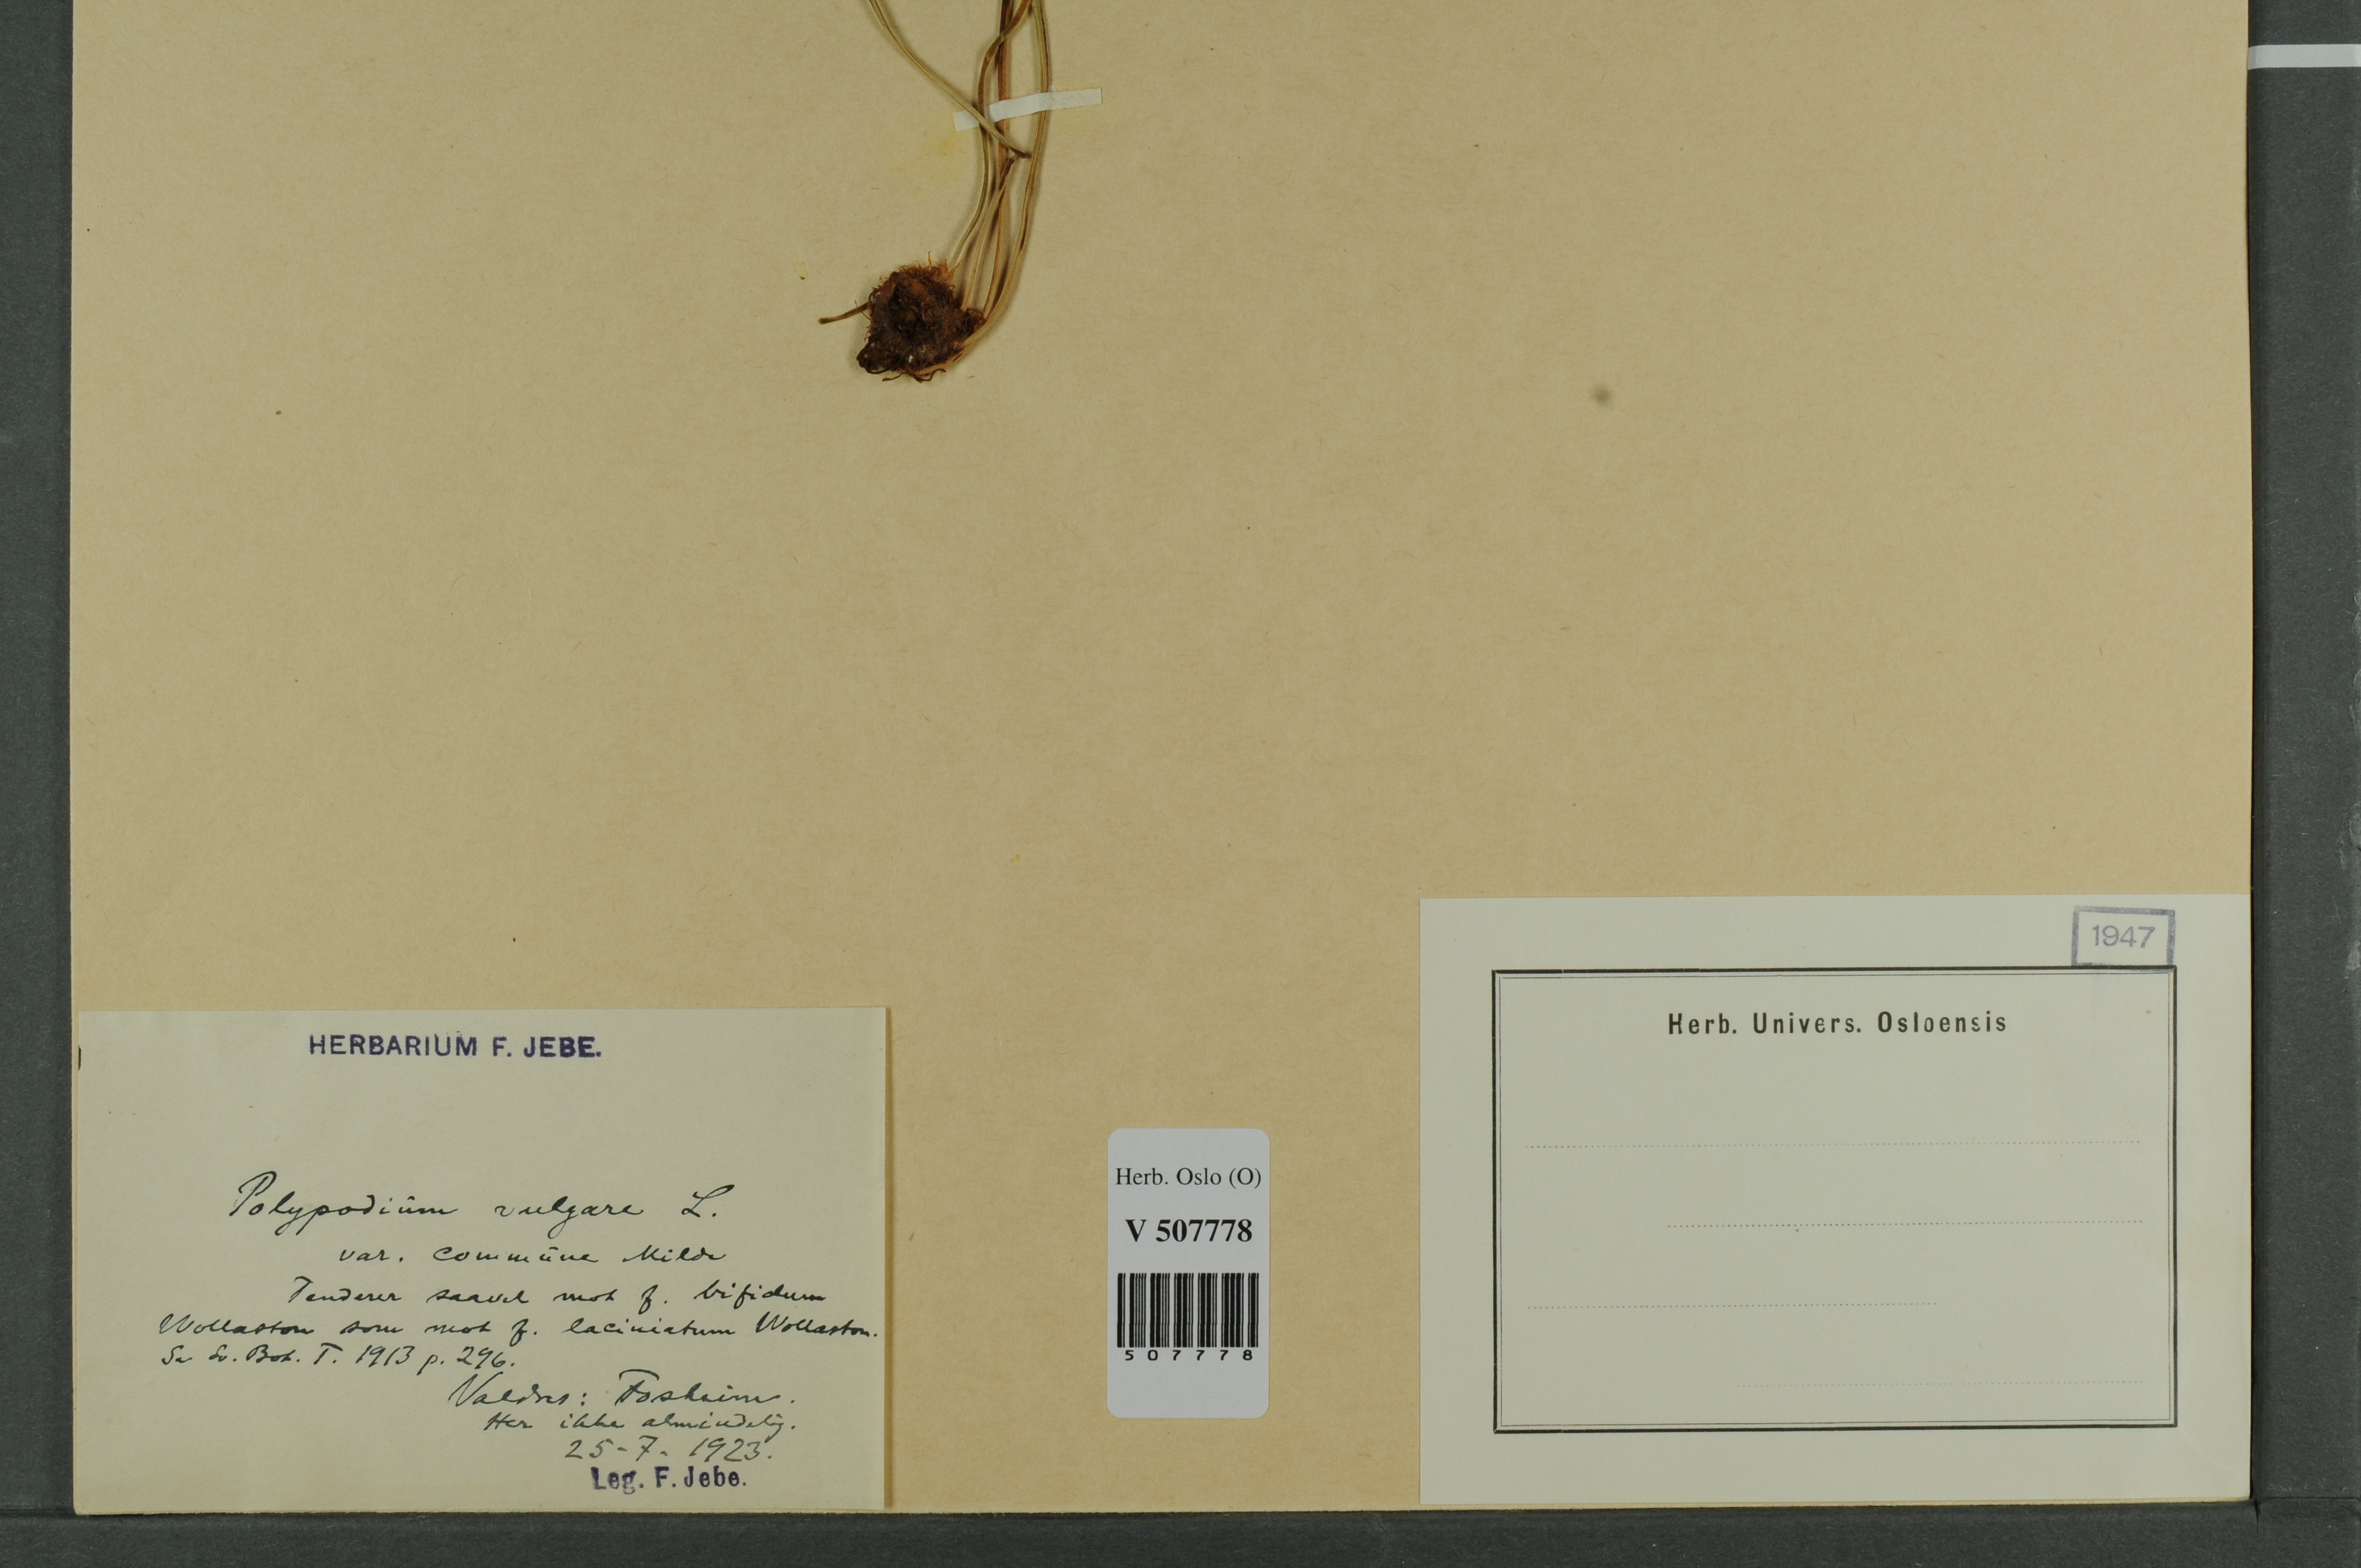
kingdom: Plantae
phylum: Tracheophyta
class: Polypodiopsida
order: Polypodiales
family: Polypodiaceae
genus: Polypodium
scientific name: Polypodium vulgare
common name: Common polypody
